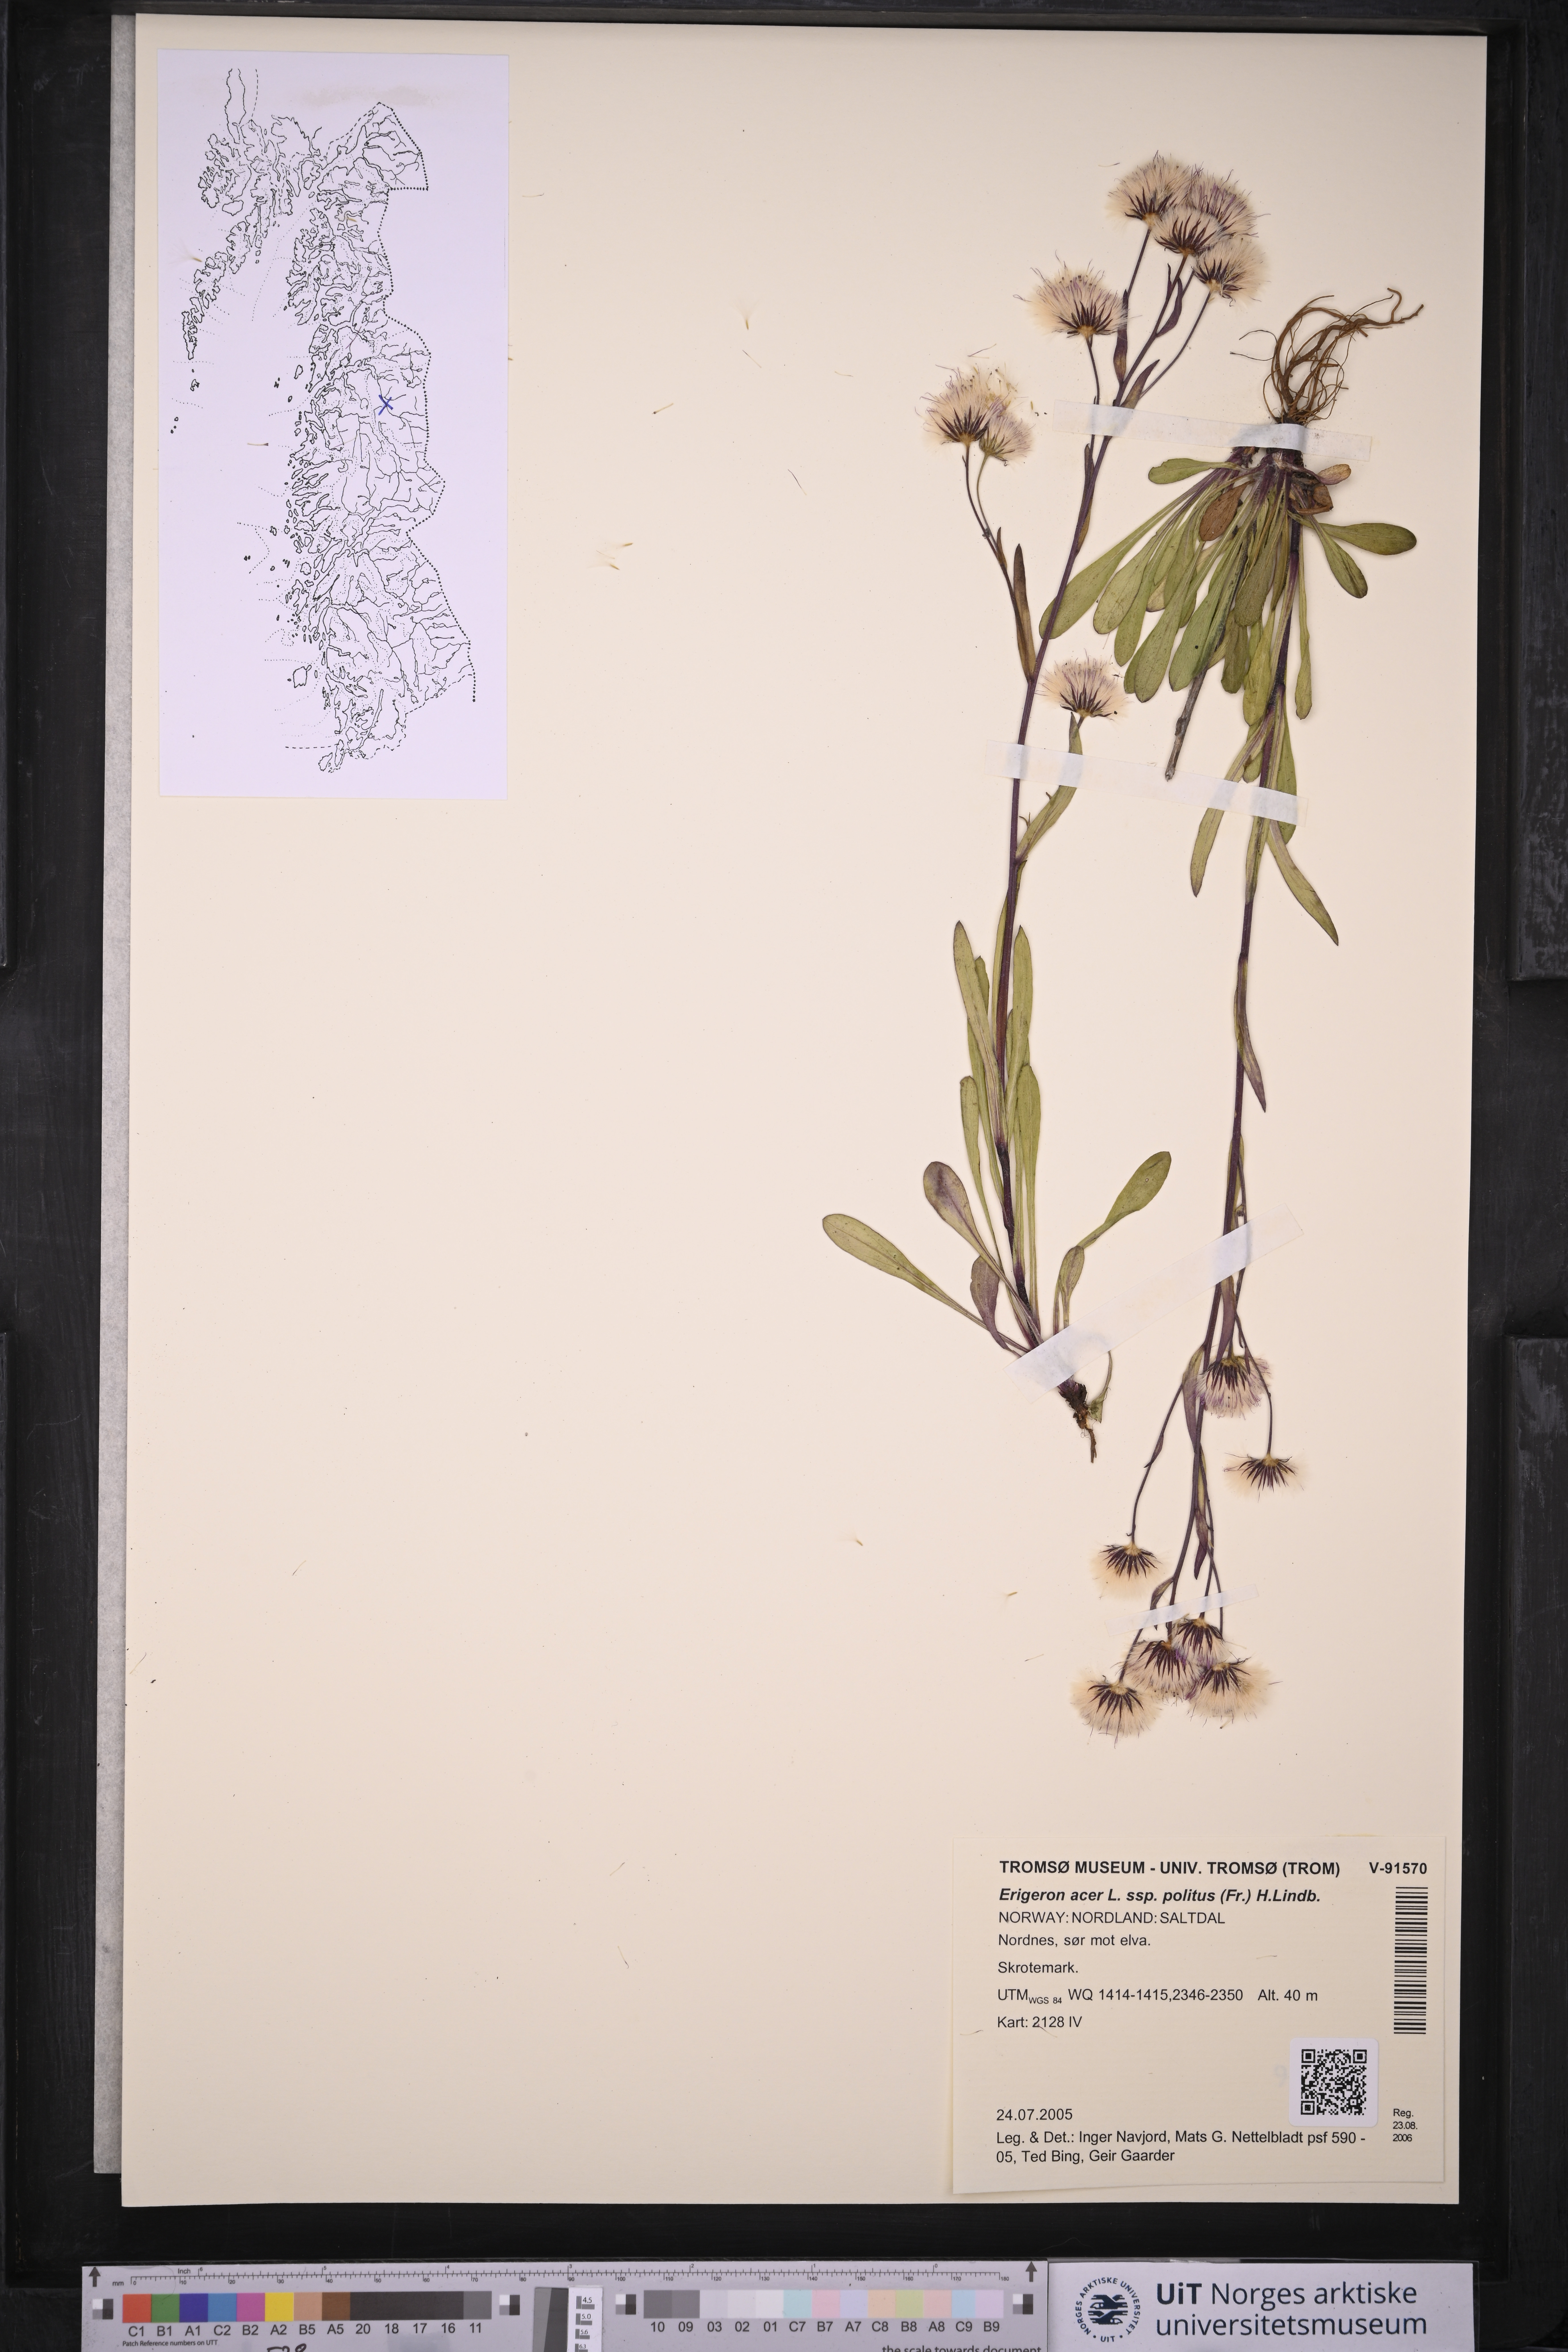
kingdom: Plantae
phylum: Tracheophyta
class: Magnoliopsida
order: Asterales
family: Asteraceae
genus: Erigeron
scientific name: Erigeron politus
